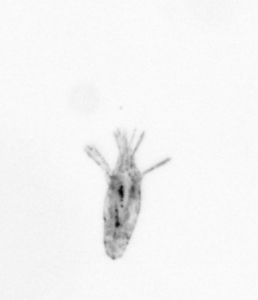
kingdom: Animalia
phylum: Arthropoda
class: Copepoda
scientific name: Copepoda
